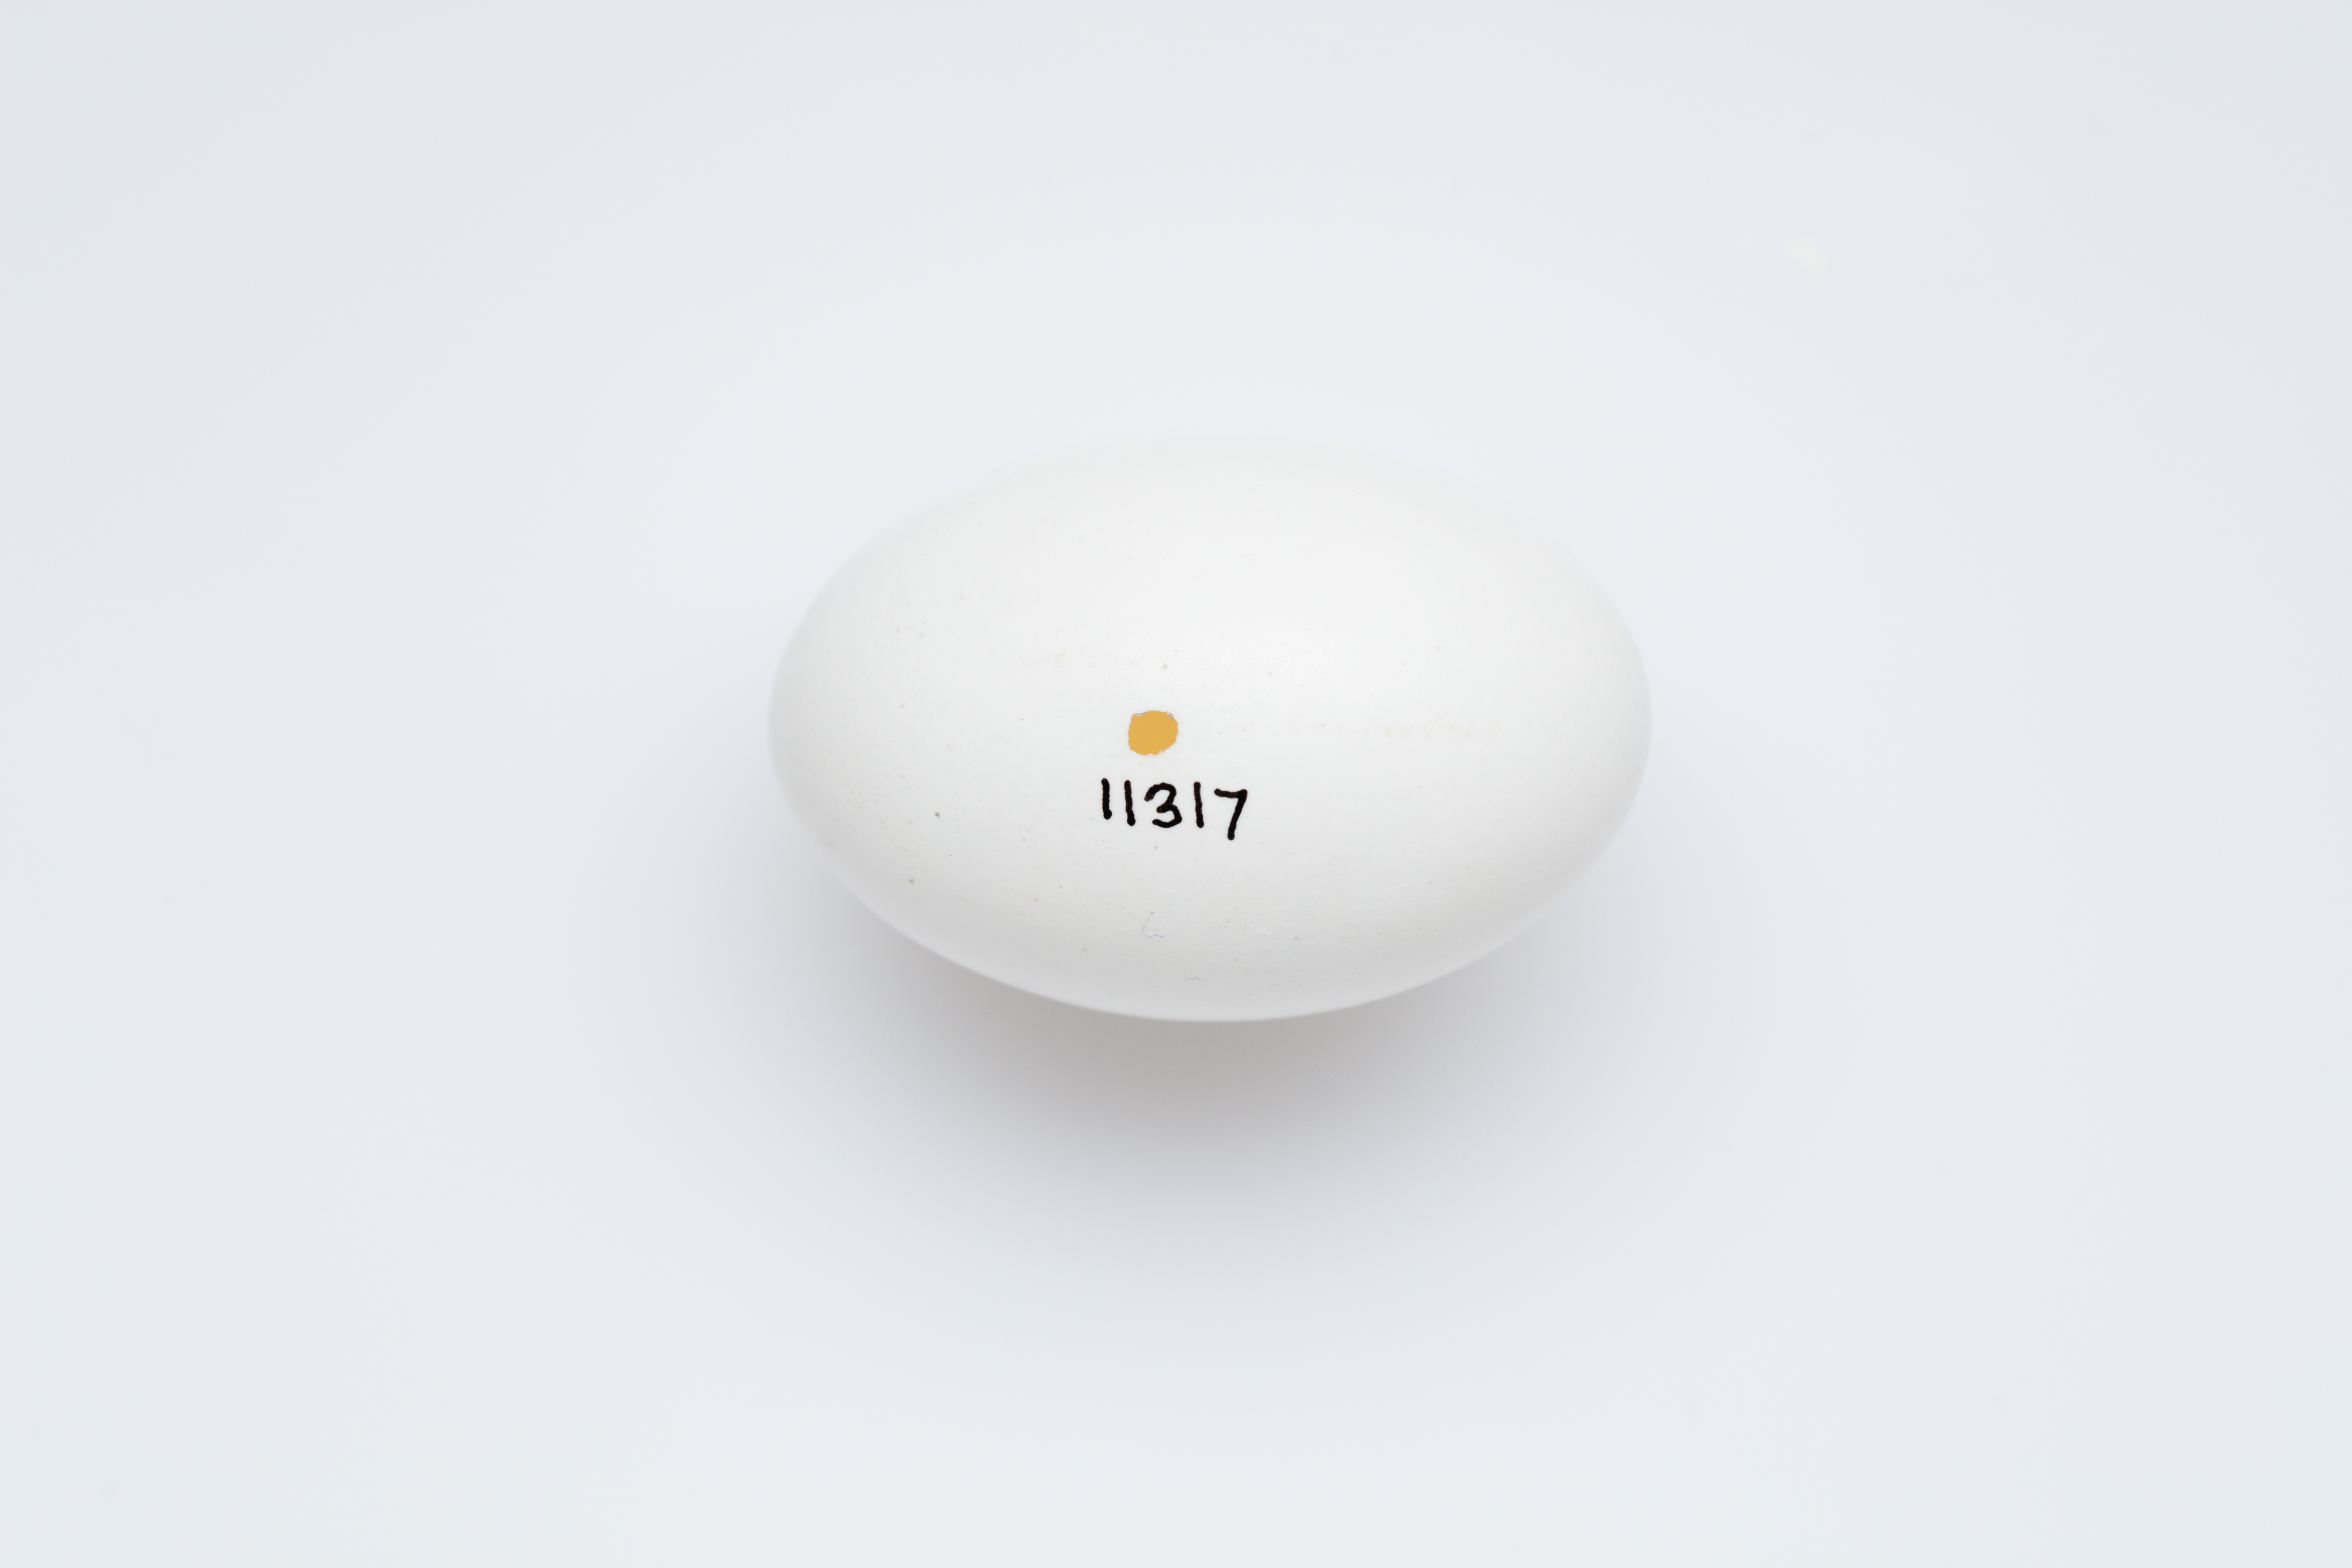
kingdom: Animalia
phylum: Chordata
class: Aves
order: Columbiformes
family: Columbidae
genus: Columba
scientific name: Columba palumbus
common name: Common wood pigeon
